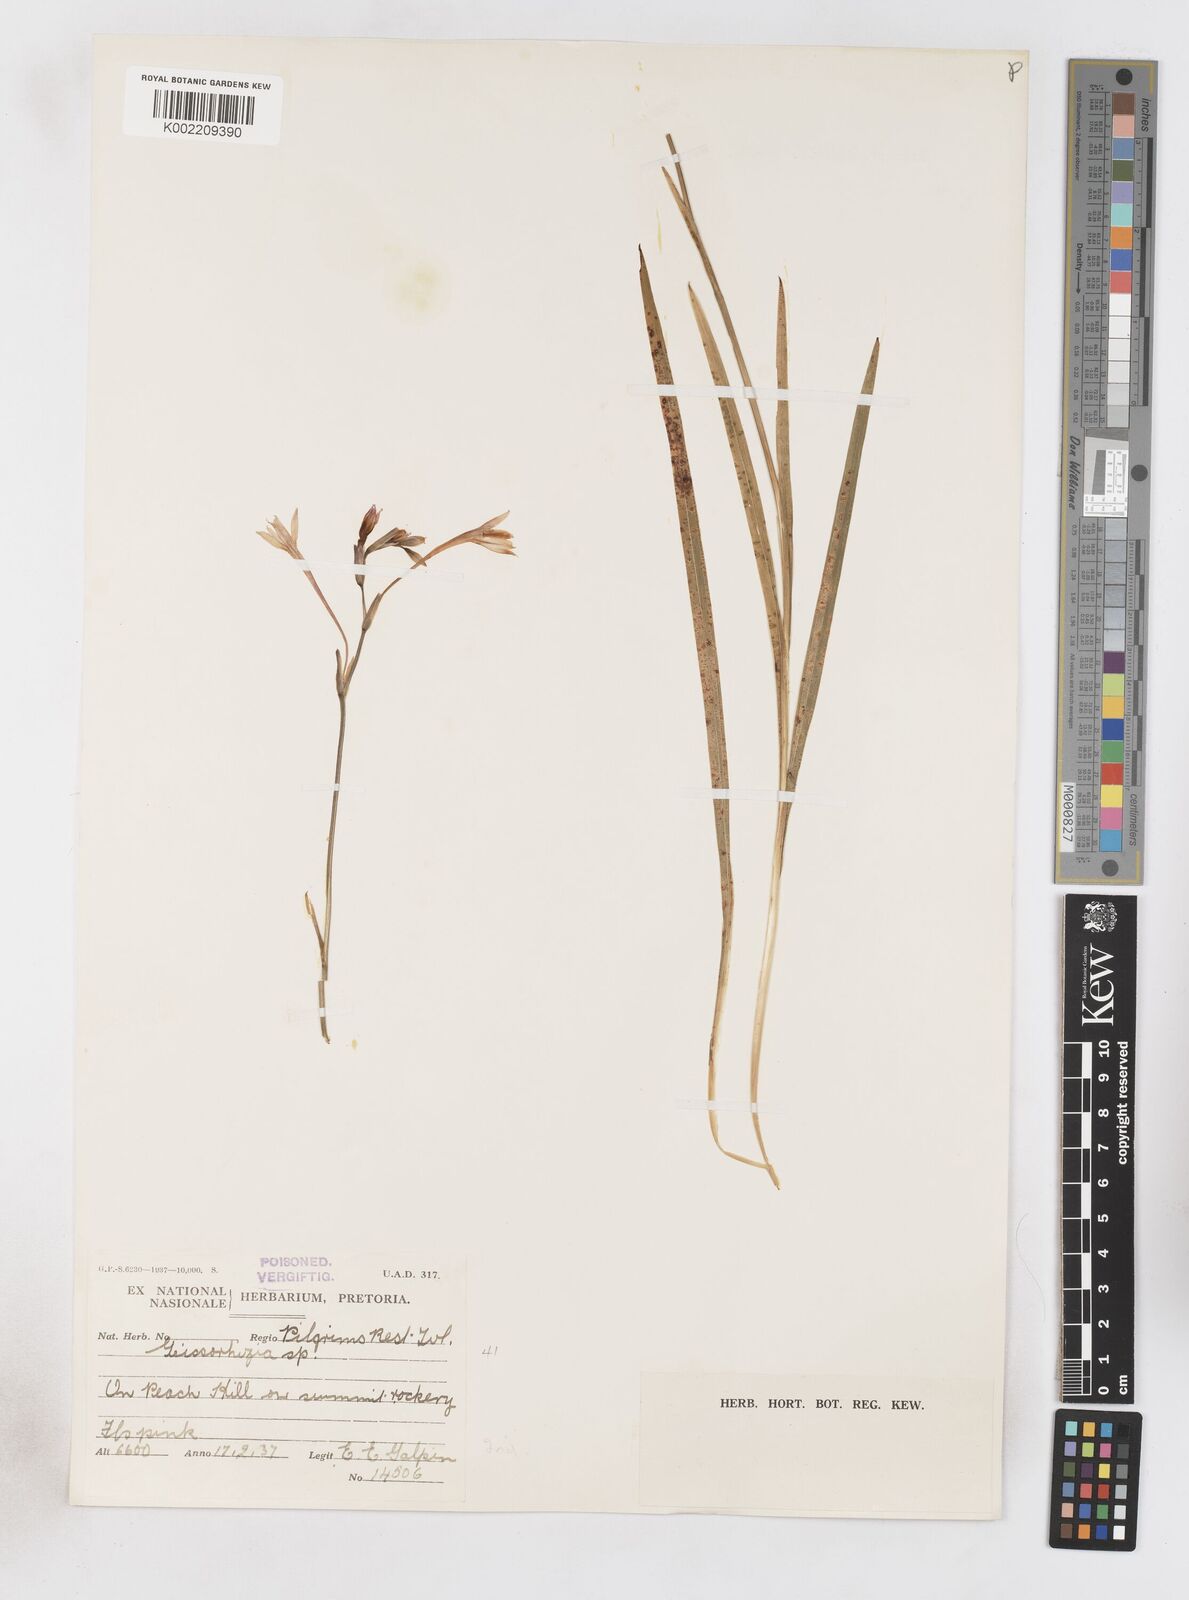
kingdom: Plantae
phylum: Tracheophyta
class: Liliopsida
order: Asparagales
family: Iridaceae
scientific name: Iridaceae
